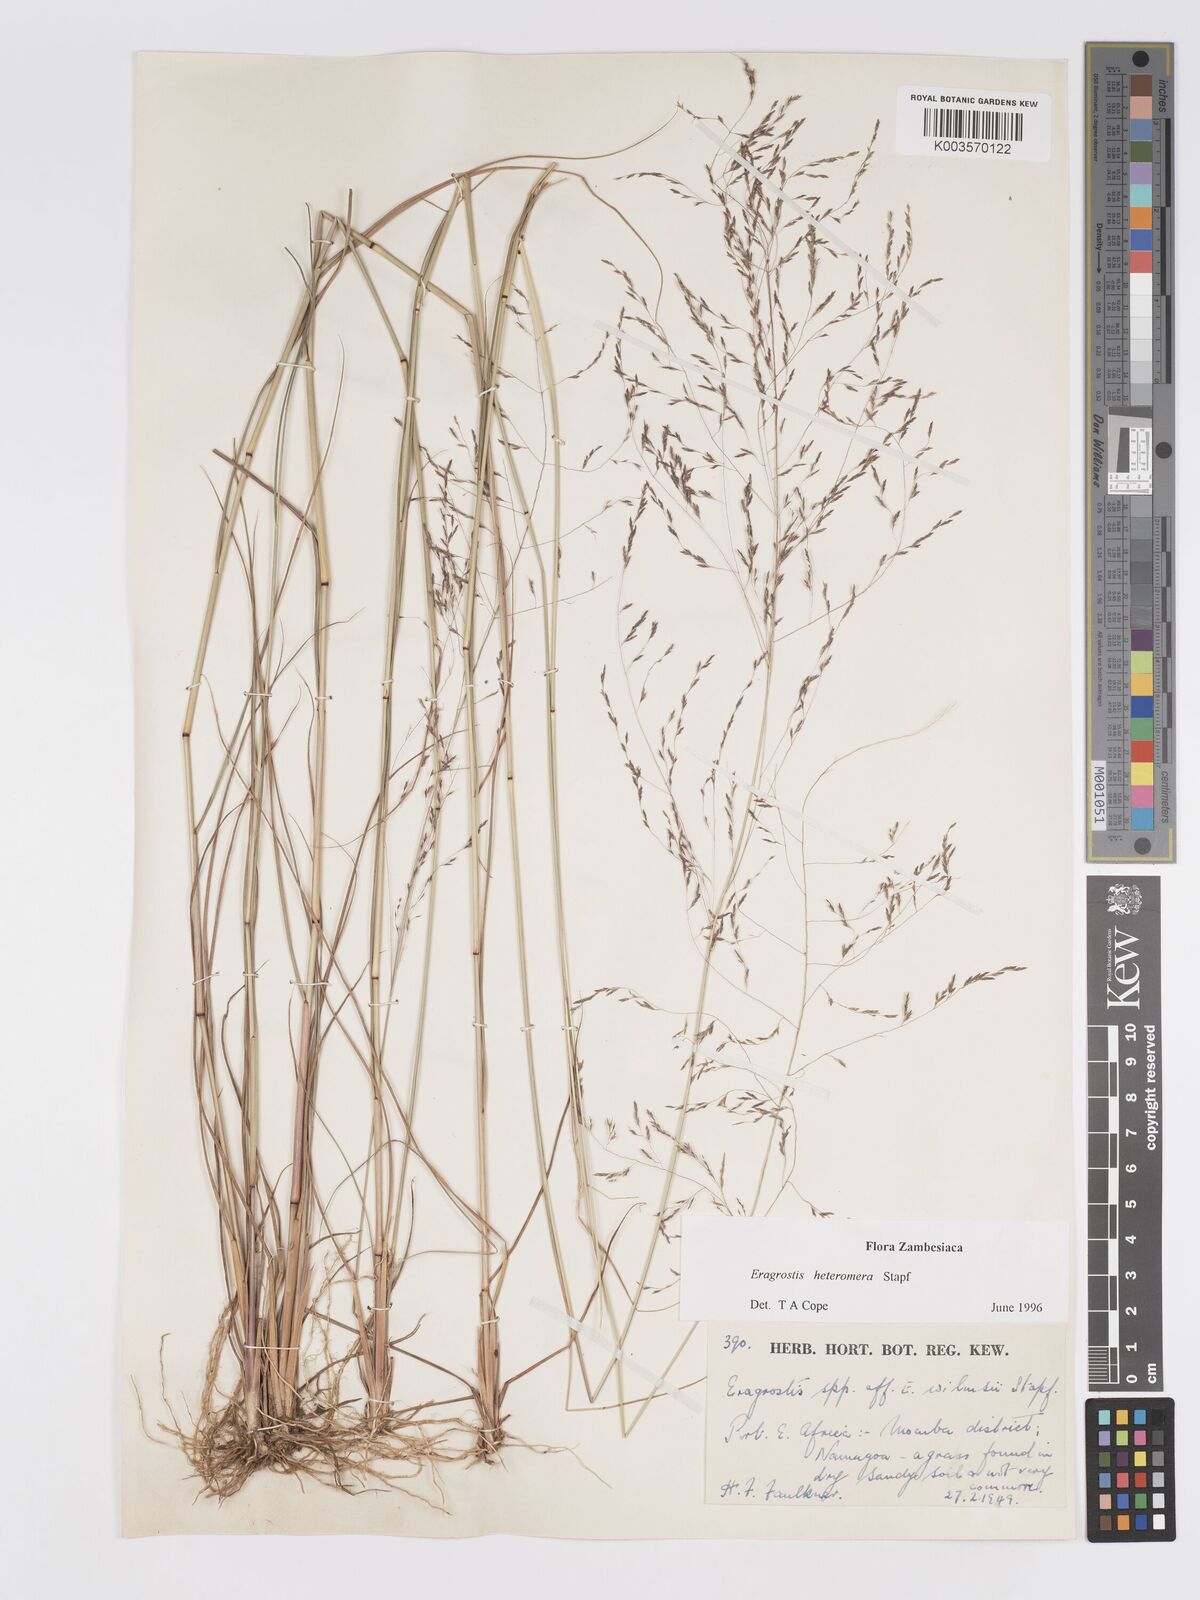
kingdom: Plantae
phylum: Tracheophyta
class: Liliopsida
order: Poales
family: Poaceae
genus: Eragrostis
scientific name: Eragrostis heteromera
